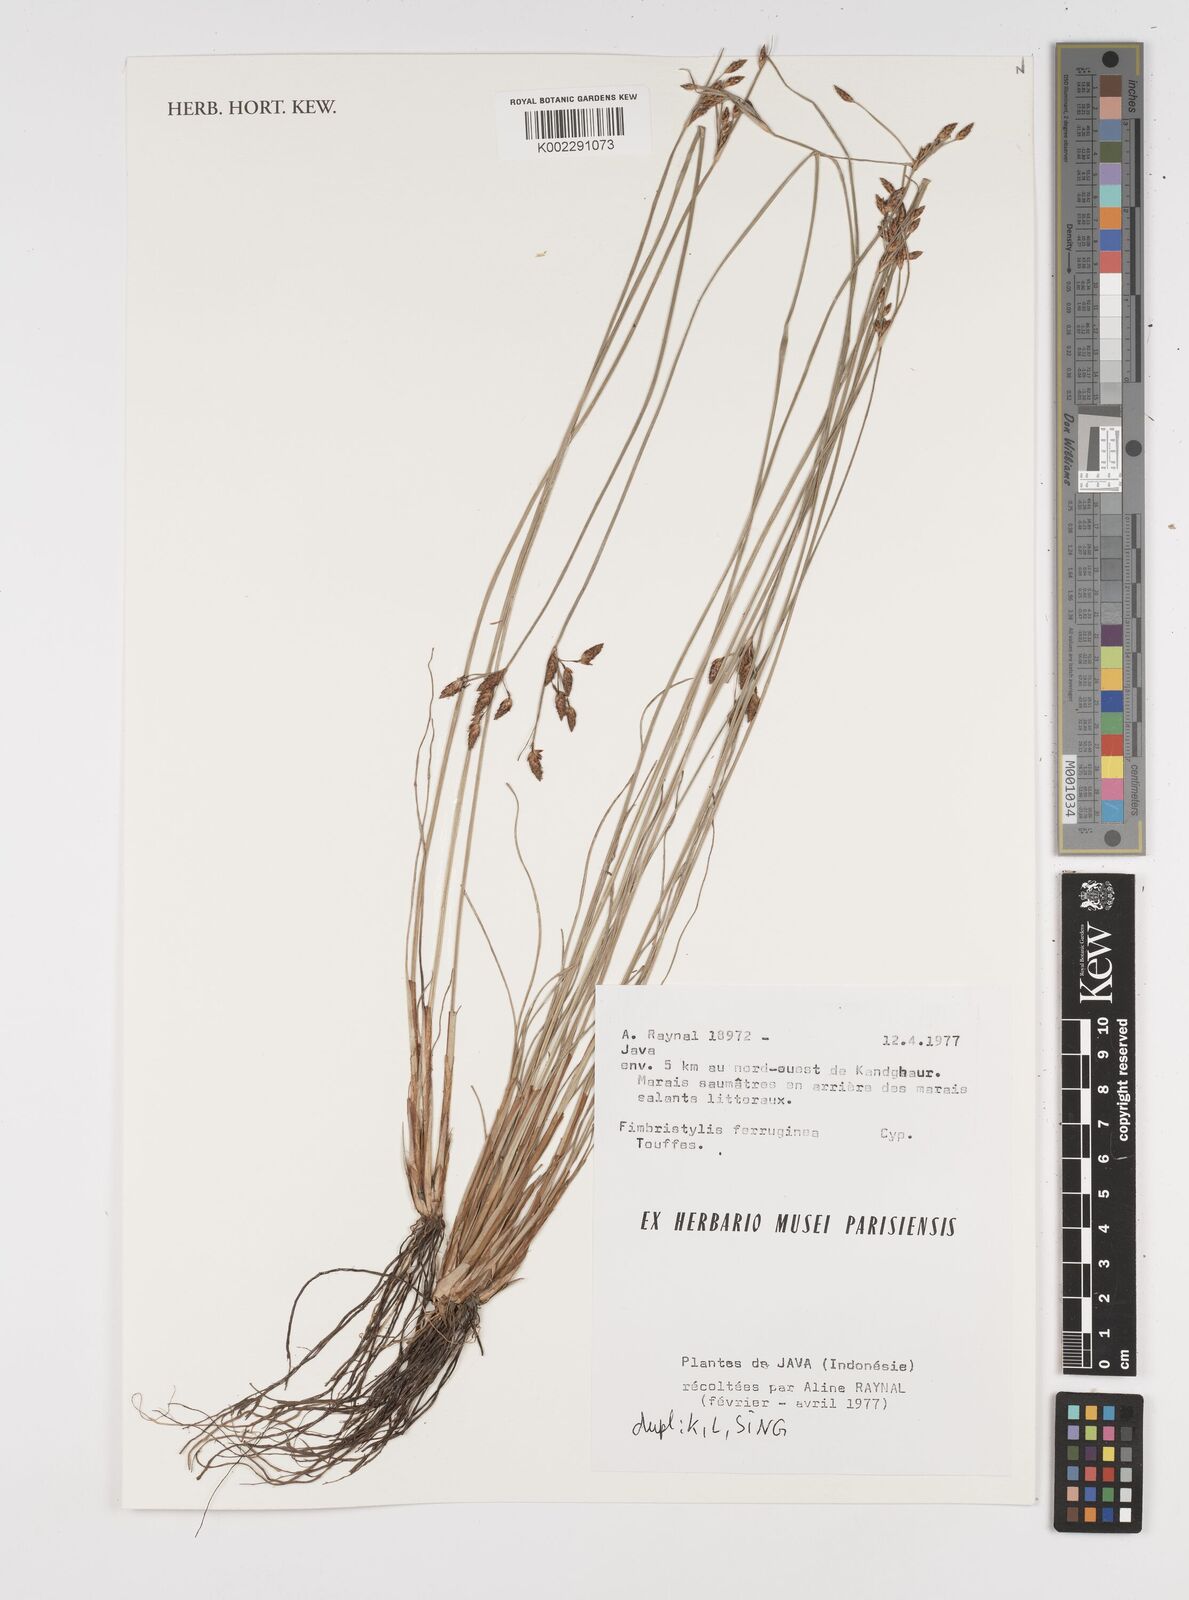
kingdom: Plantae
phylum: Tracheophyta
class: Liliopsida
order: Poales
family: Cyperaceae
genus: Fimbristylis
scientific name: Fimbristylis ferruginea
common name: West indian fimbry
